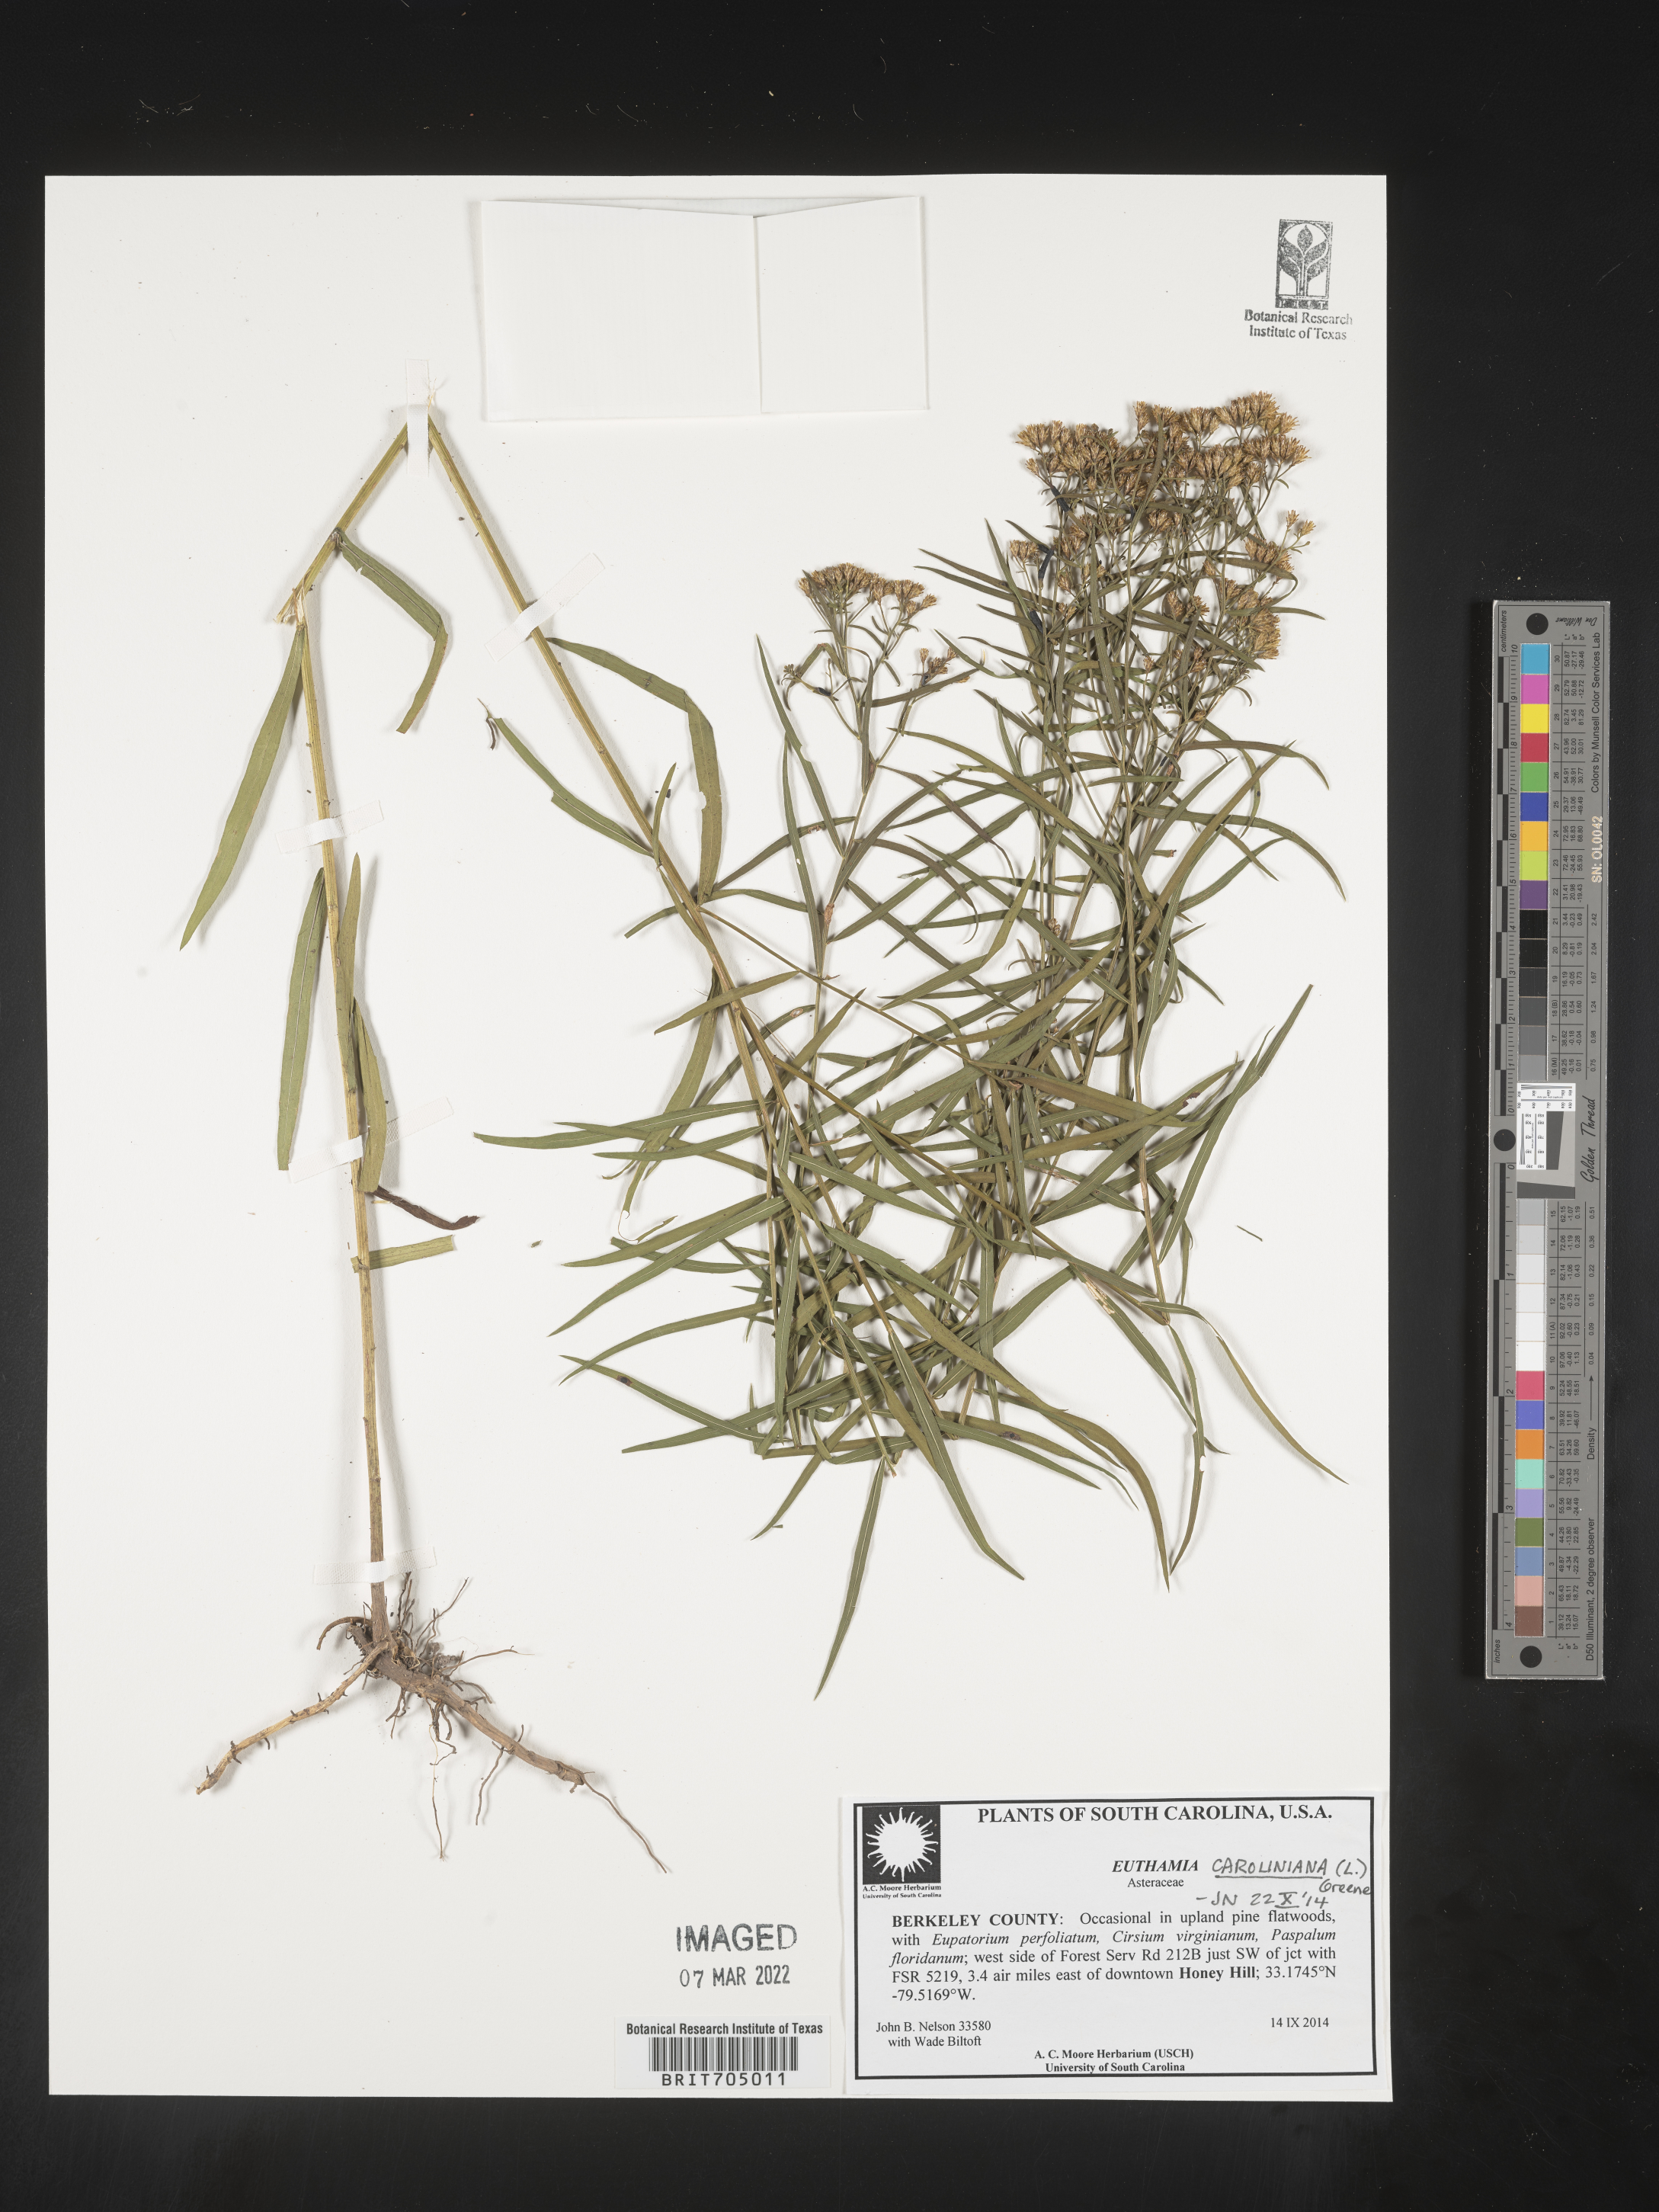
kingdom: Plantae
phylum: Tracheophyta
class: Magnoliopsida
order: Asterales
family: Asteraceae
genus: Euthamia
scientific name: Euthamia caroliniana
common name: Coastal plain goldentop
